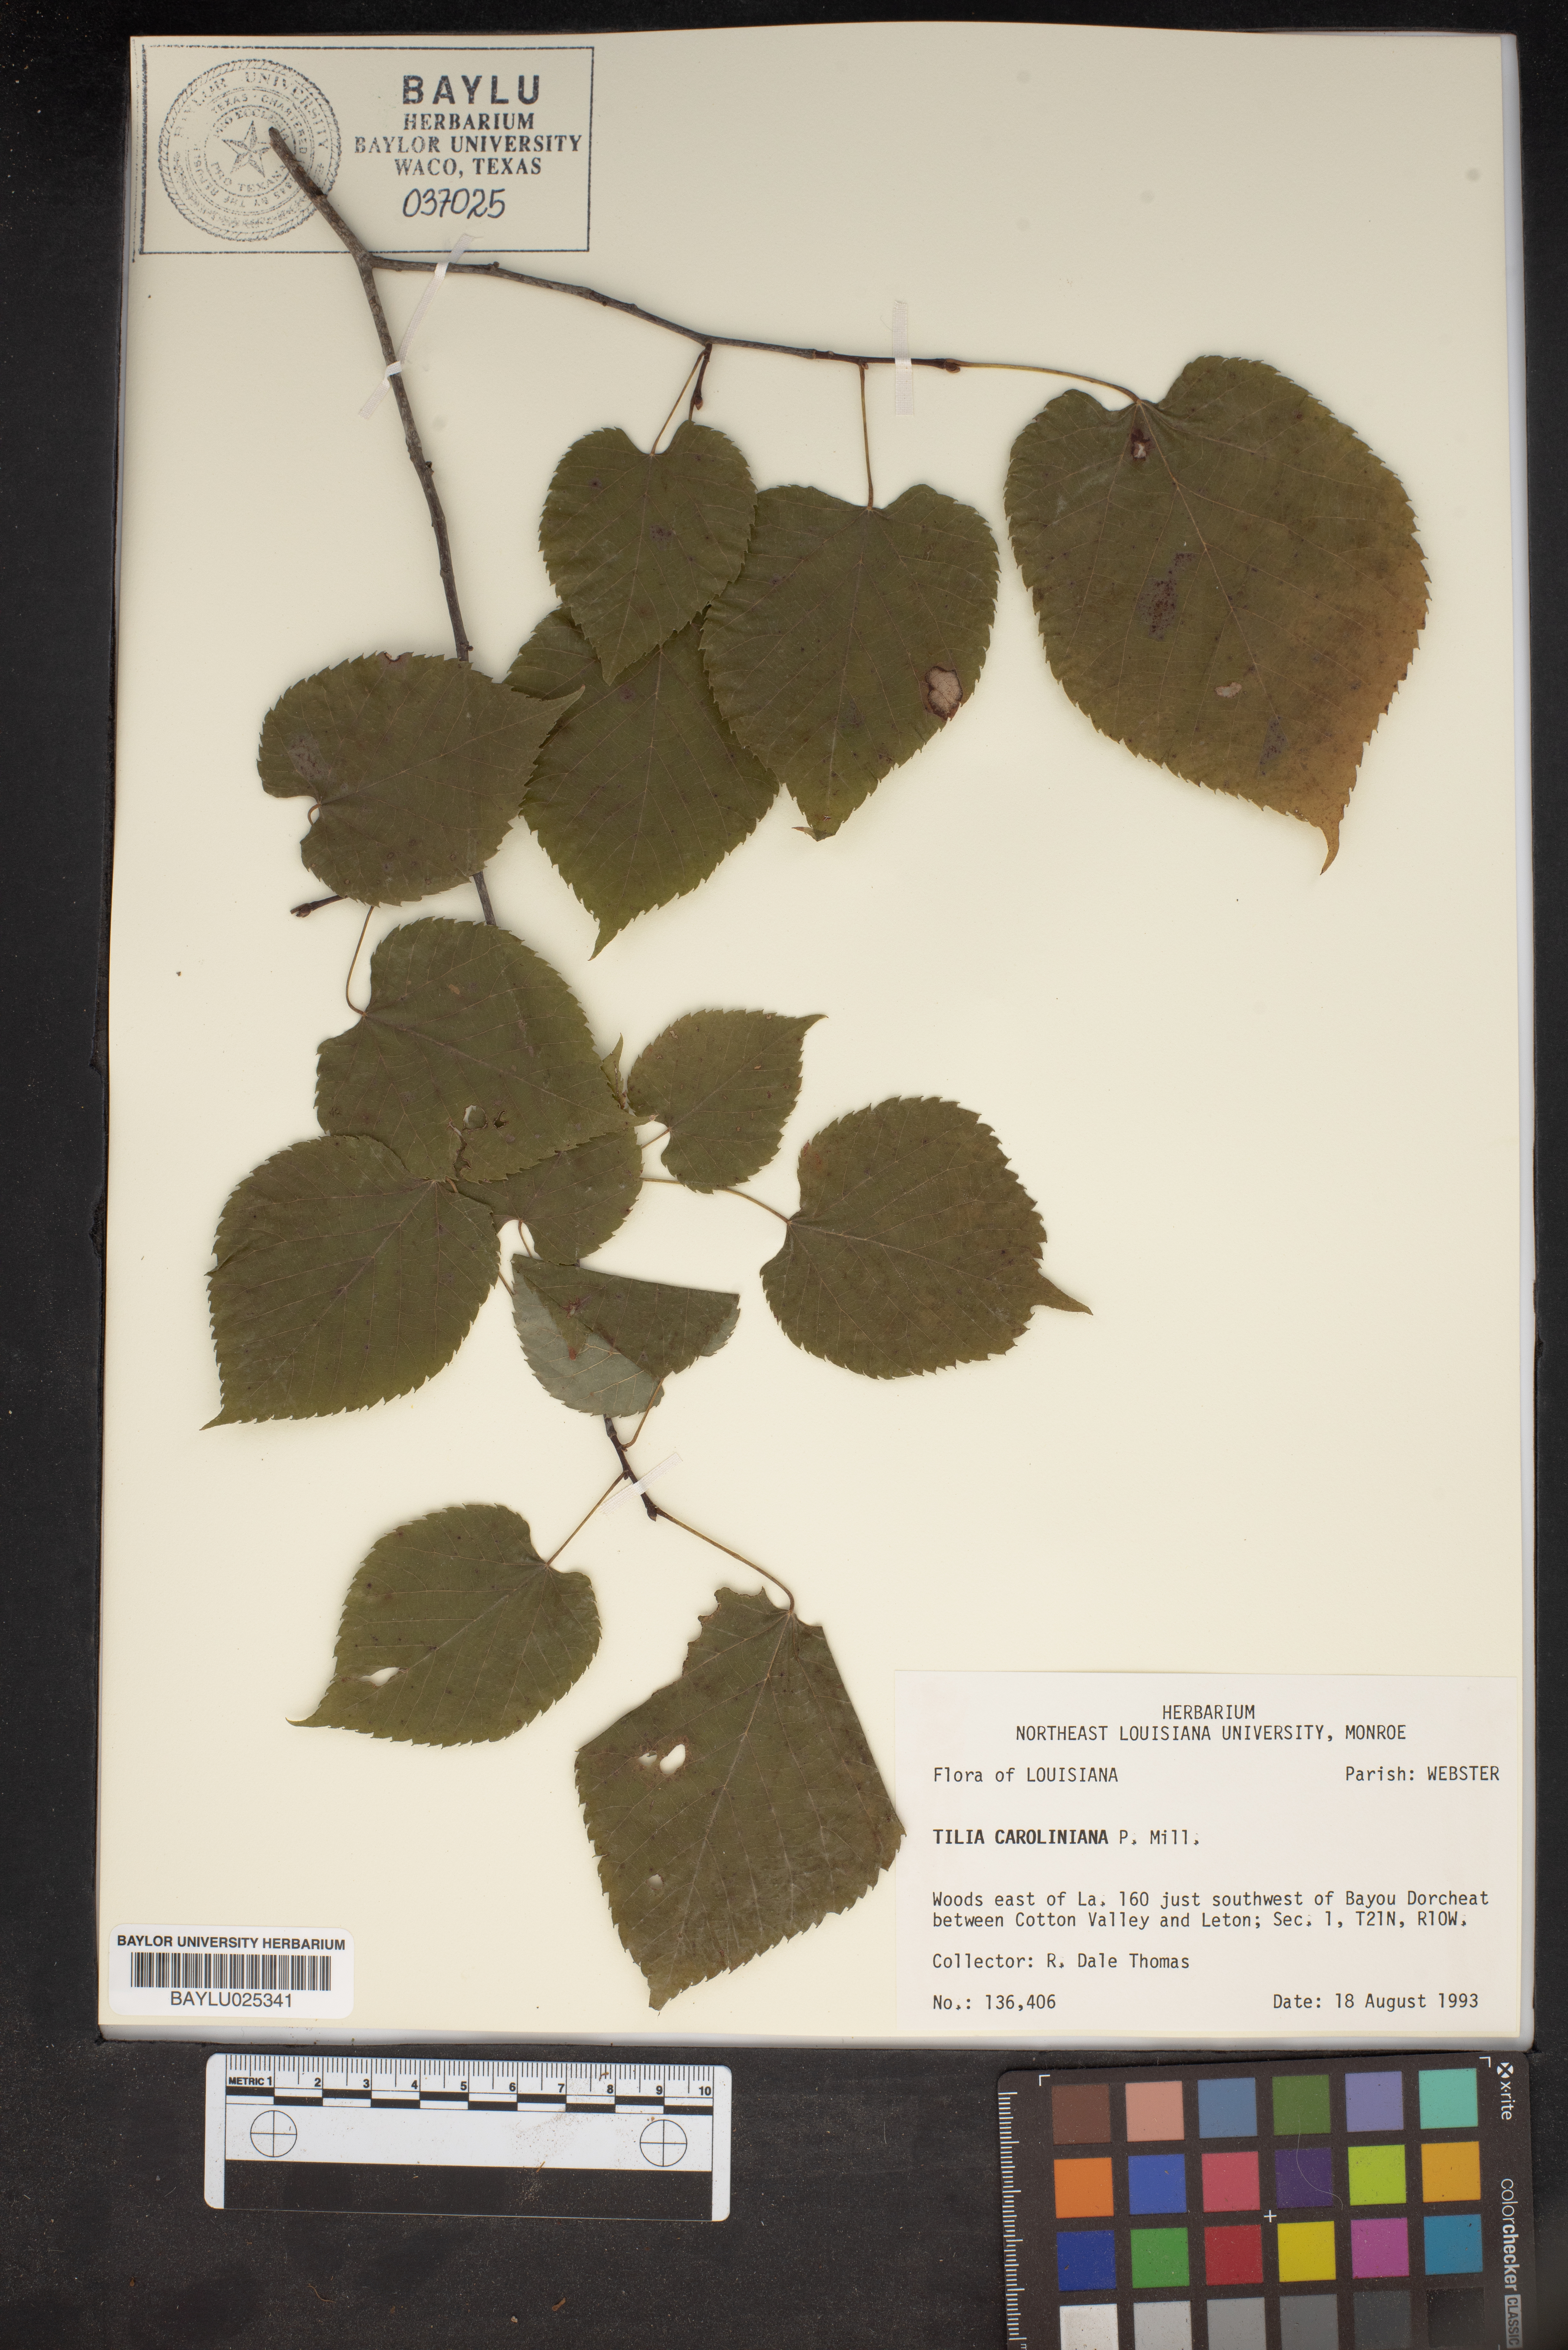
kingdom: Plantae
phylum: Tracheophyta
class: Magnoliopsida
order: Malvales
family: Malvaceae
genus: Tilia
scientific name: Tilia americana
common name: Basswood
